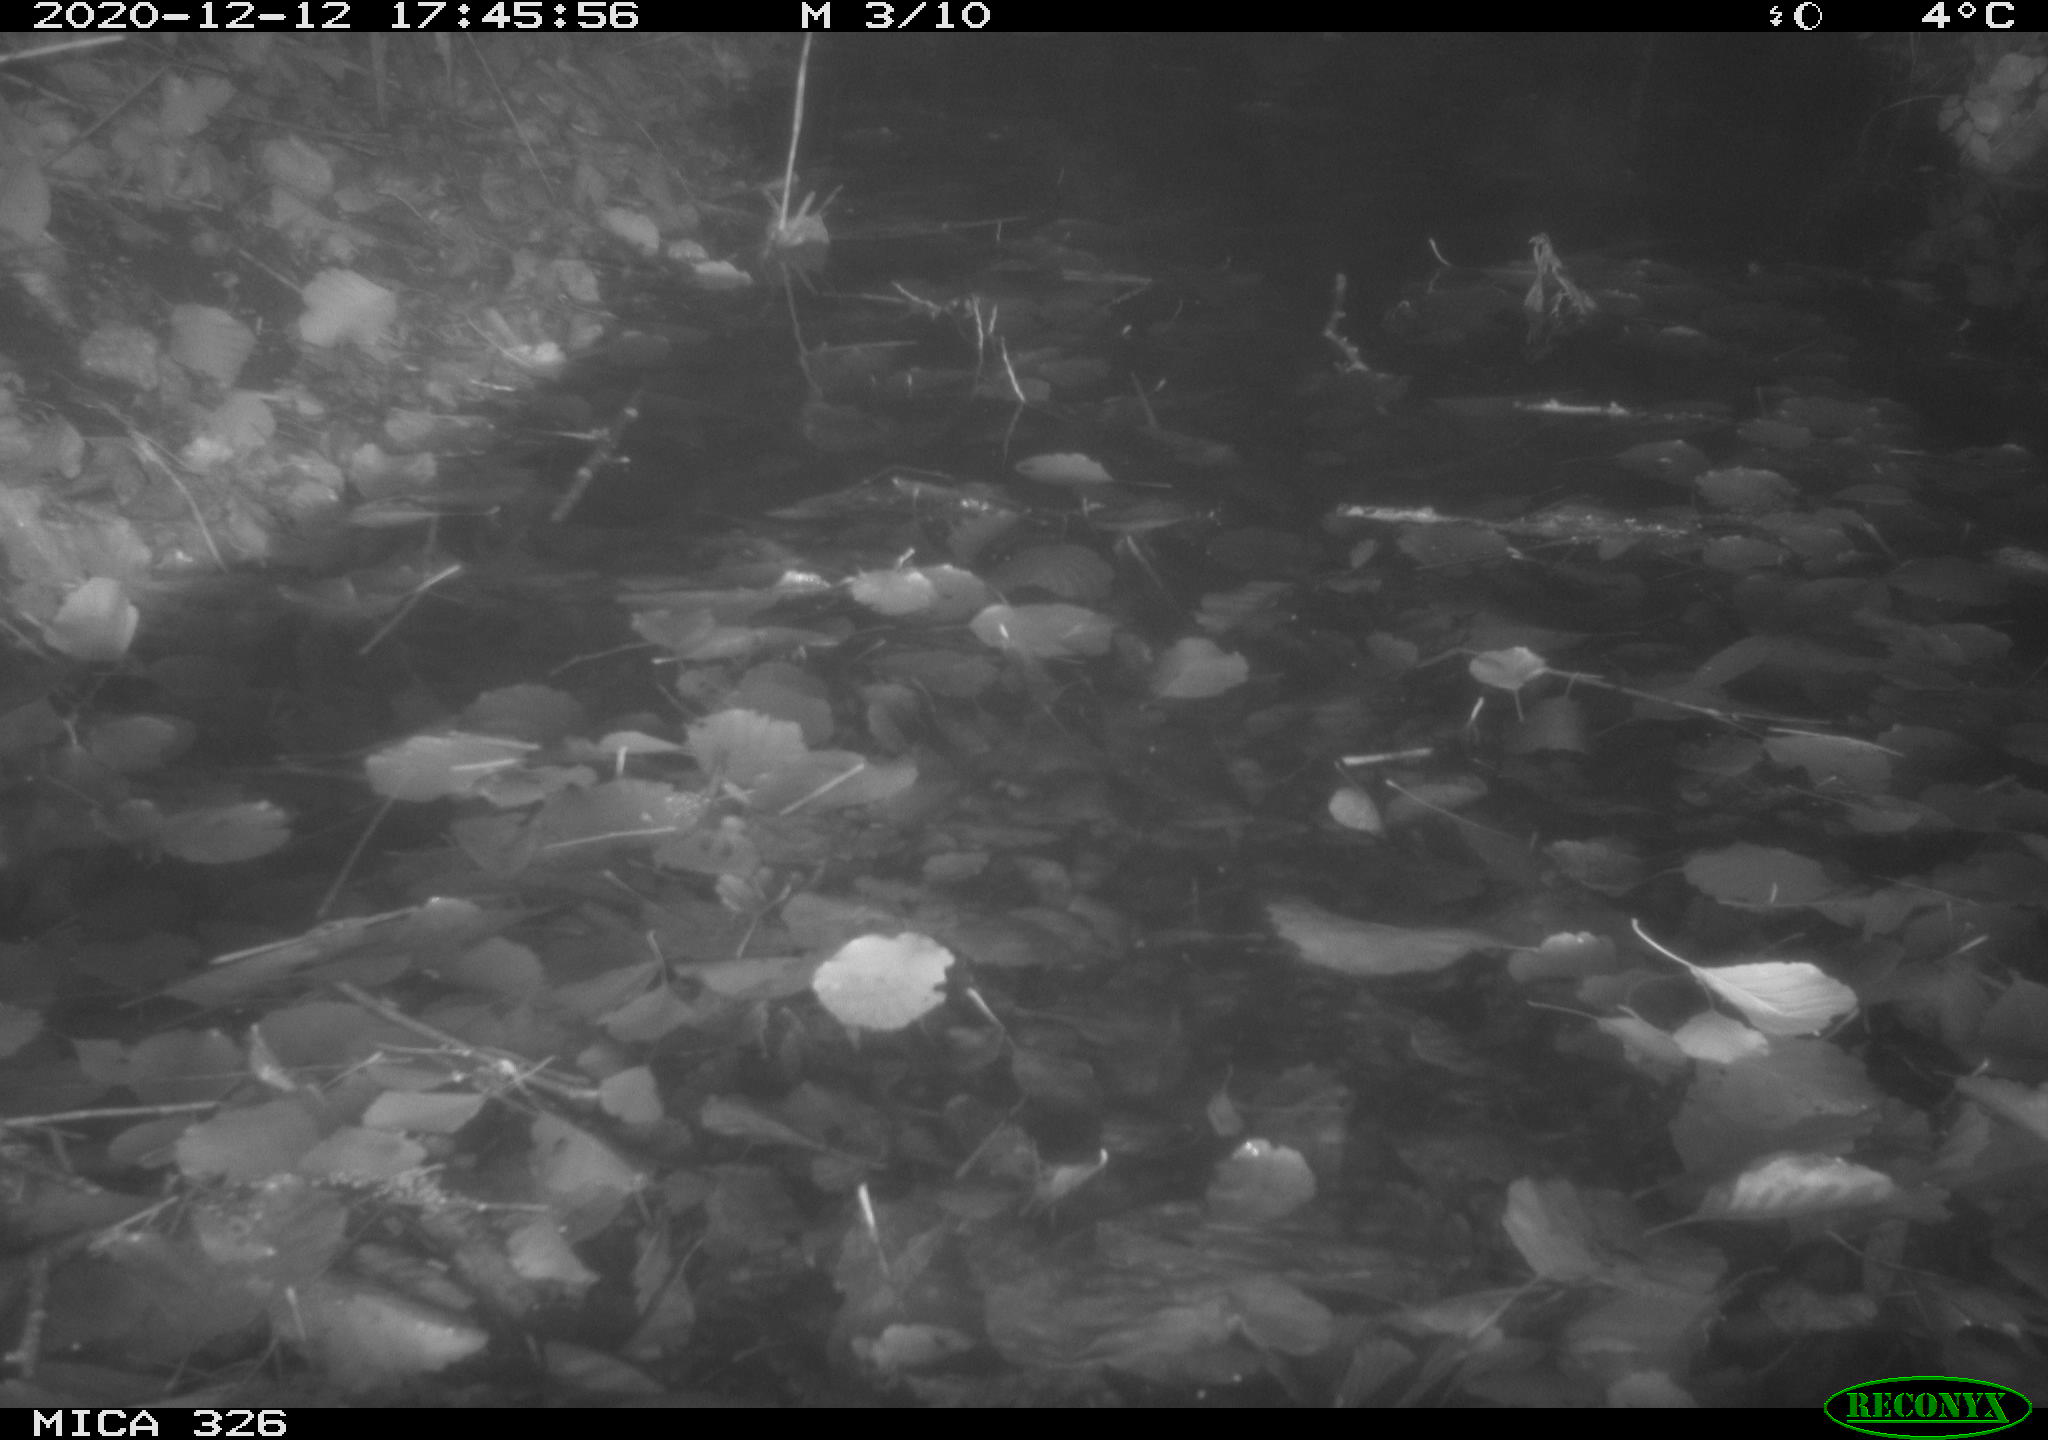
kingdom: Animalia
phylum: Chordata
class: Mammalia
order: Rodentia
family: Cricetidae
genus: Ondatra
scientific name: Ondatra zibethicus
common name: Muskrat
